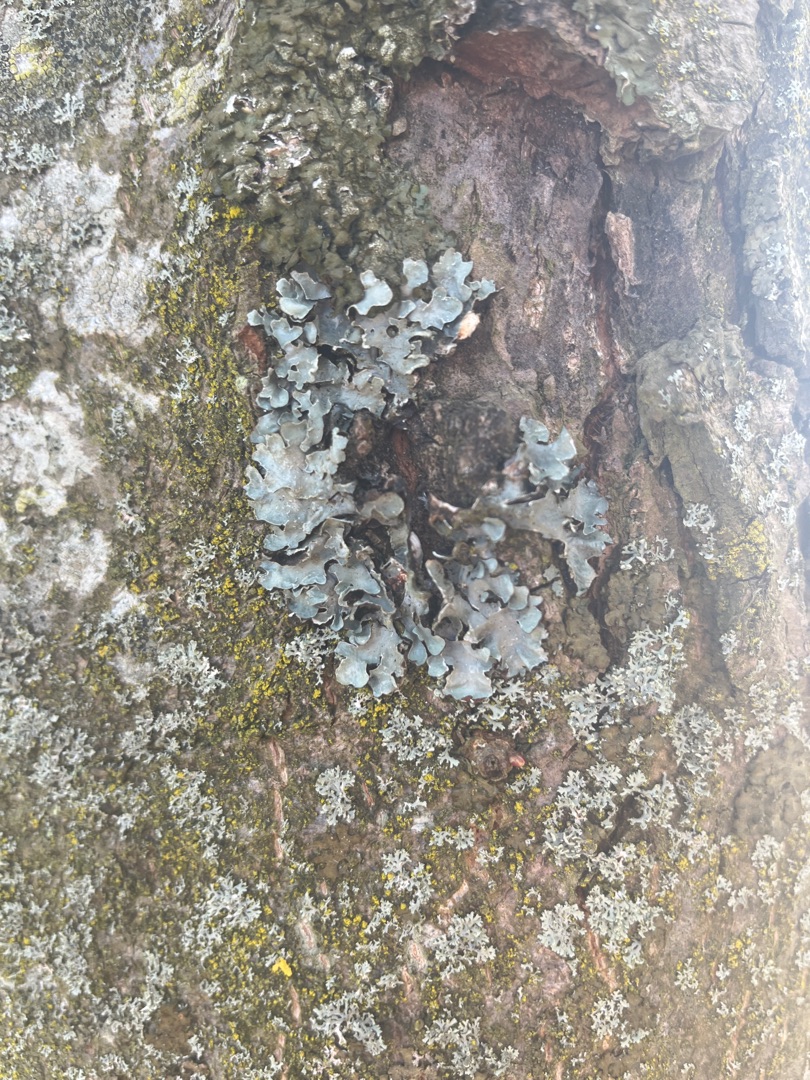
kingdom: Fungi
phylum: Ascomycota
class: Lecanoromycetes
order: Lecanorales
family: Parmeliaceae
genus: Parmelia
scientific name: Parmelia sulcata
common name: Rynket skållav
